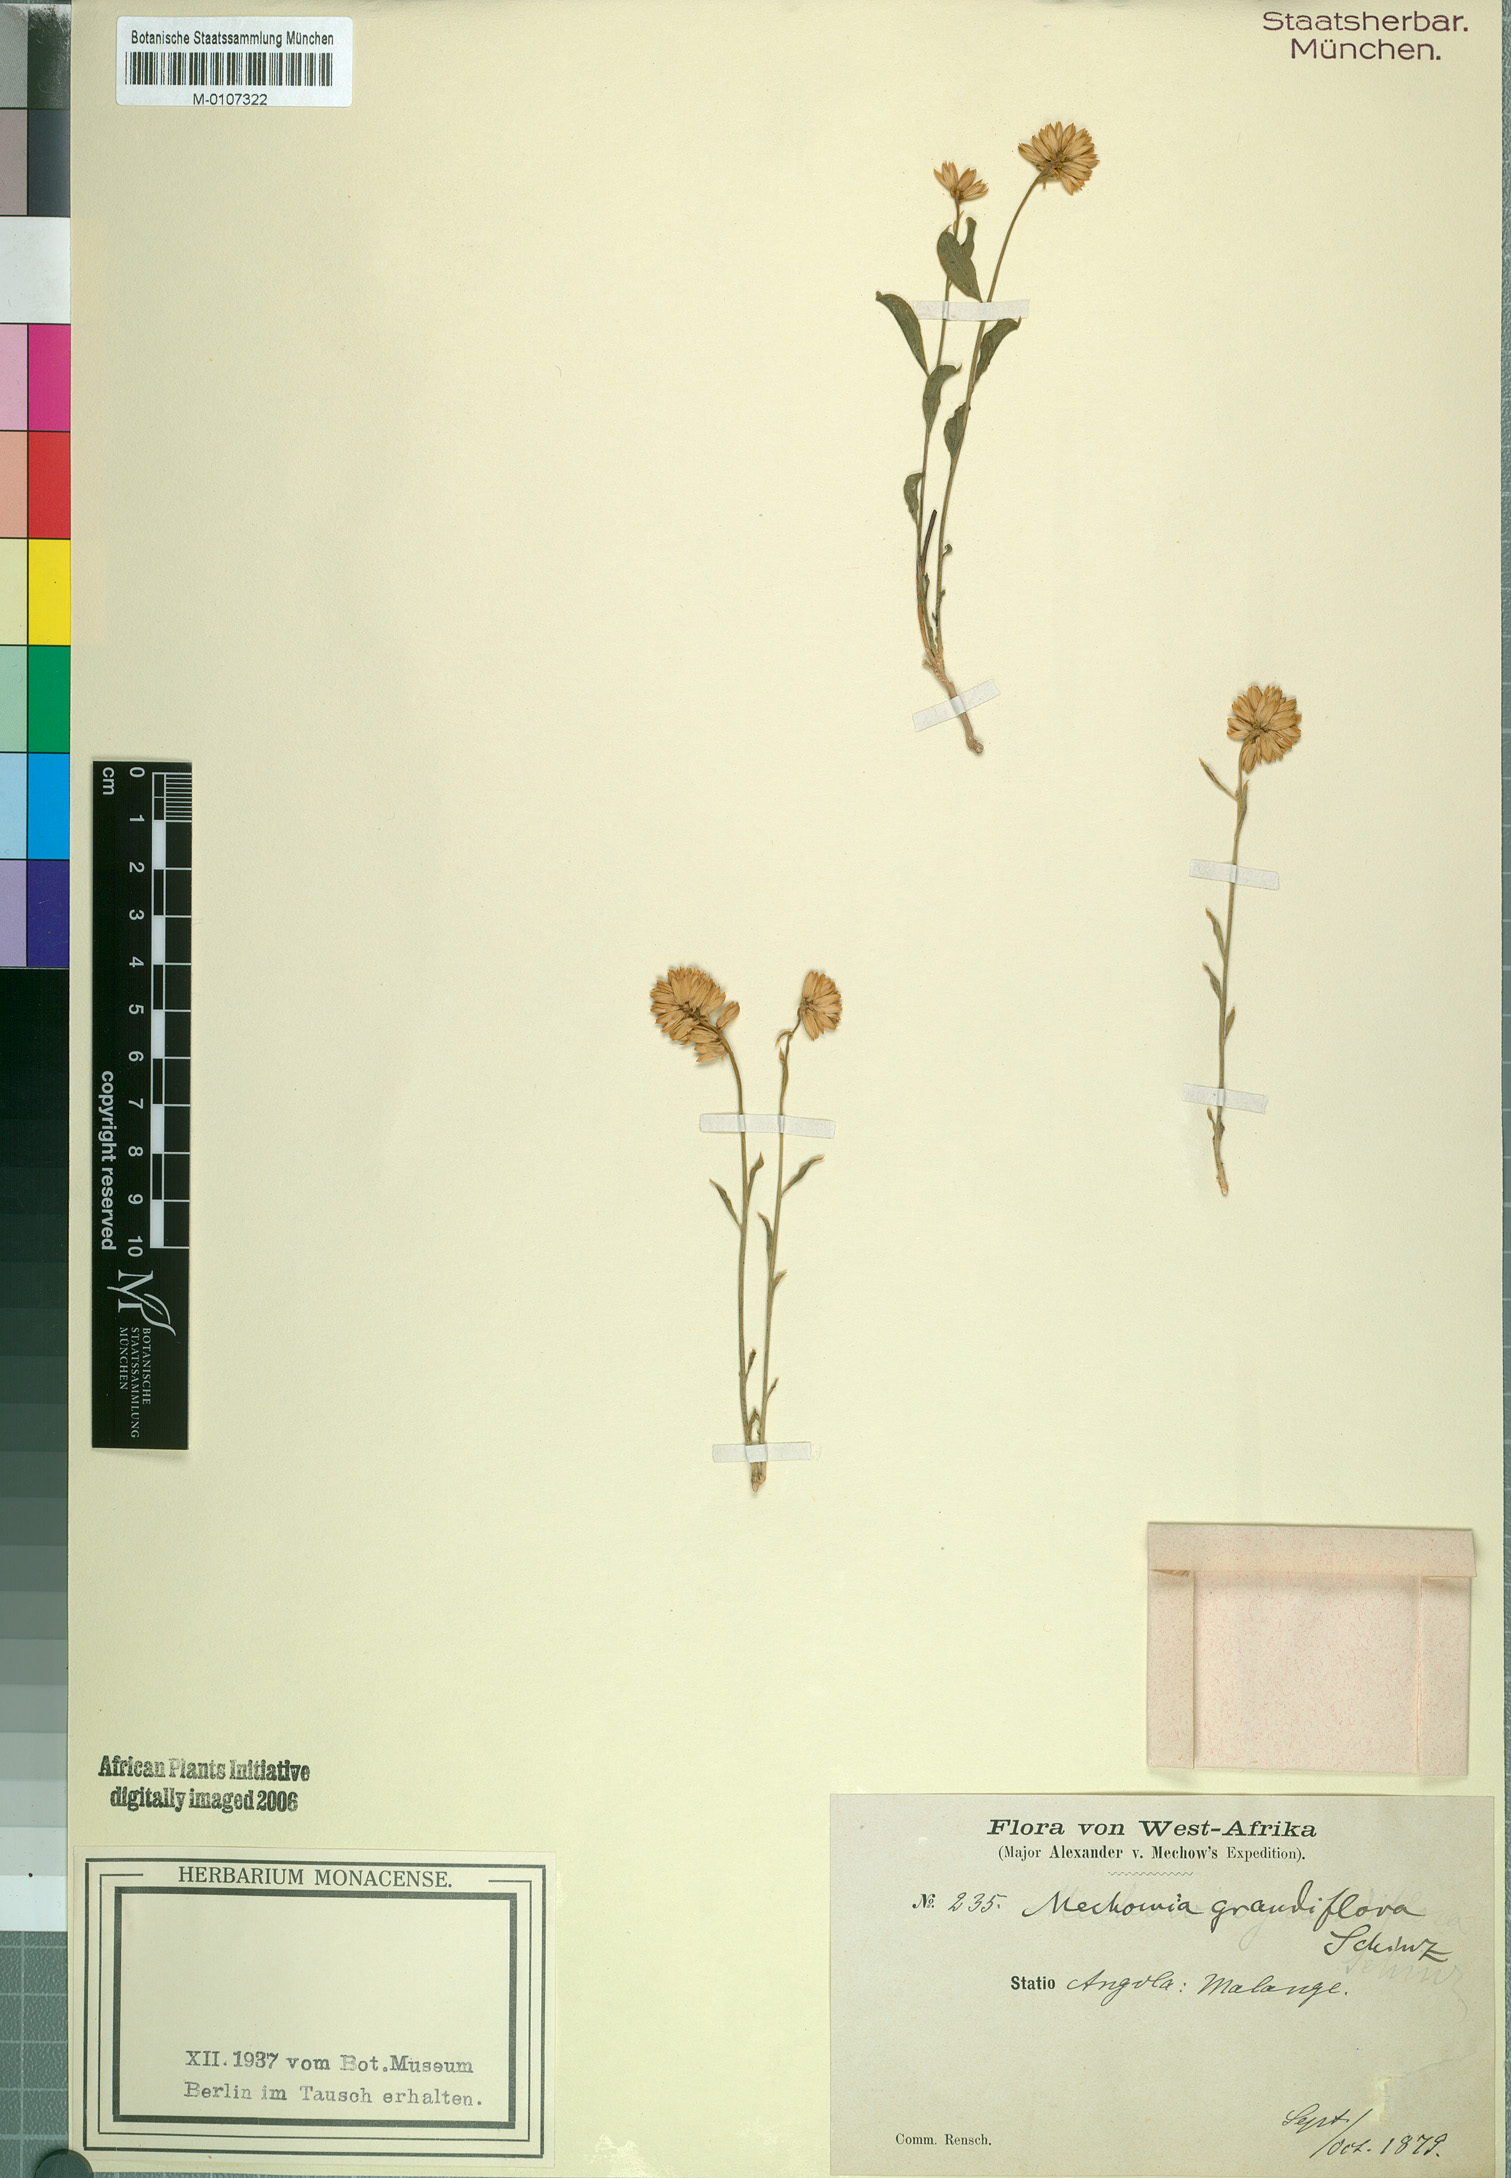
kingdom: Plantae
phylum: Tracheophyta
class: Magnoliopsida
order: Caryophyllales
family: Amaranthaceae
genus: Mechowia
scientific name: Mechowia grandiflora
